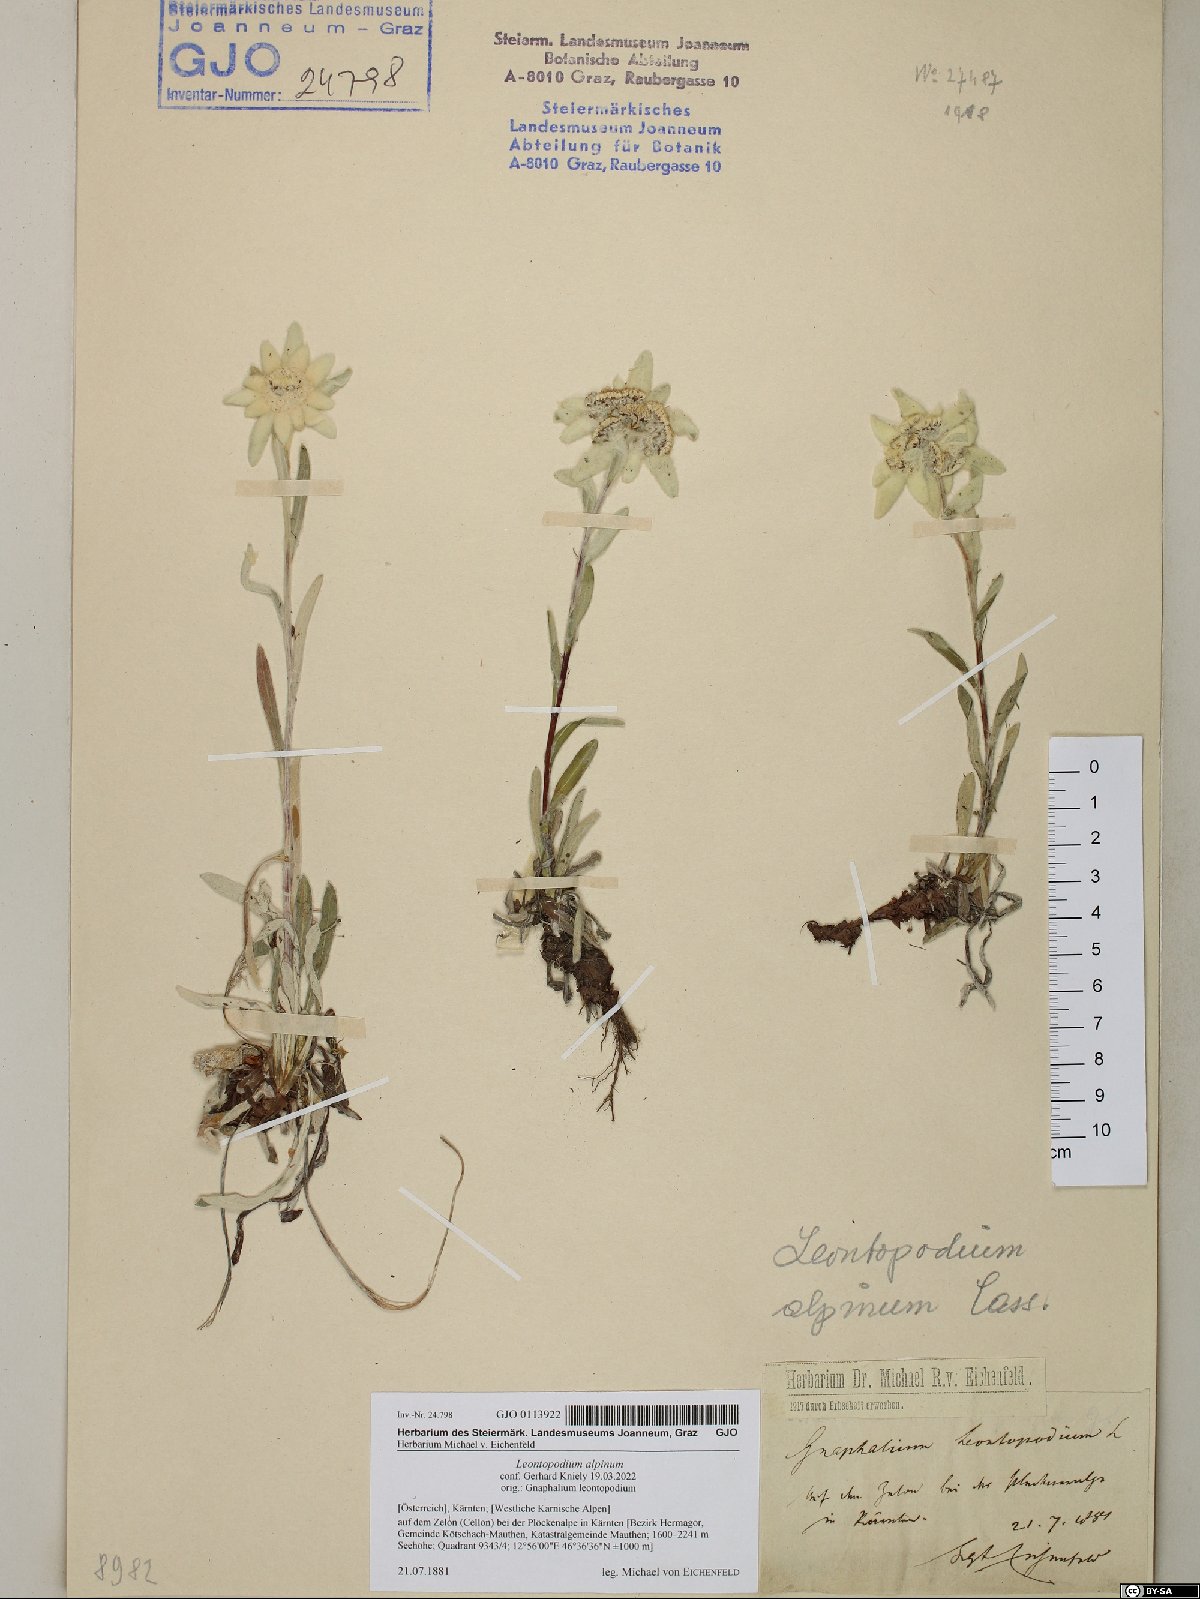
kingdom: Plantae
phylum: Tracheophyta
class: Magnoliopsida
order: Asterales
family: Asteraceae
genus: Leontopodium
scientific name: Leontopodium nivale
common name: Edelweiss
